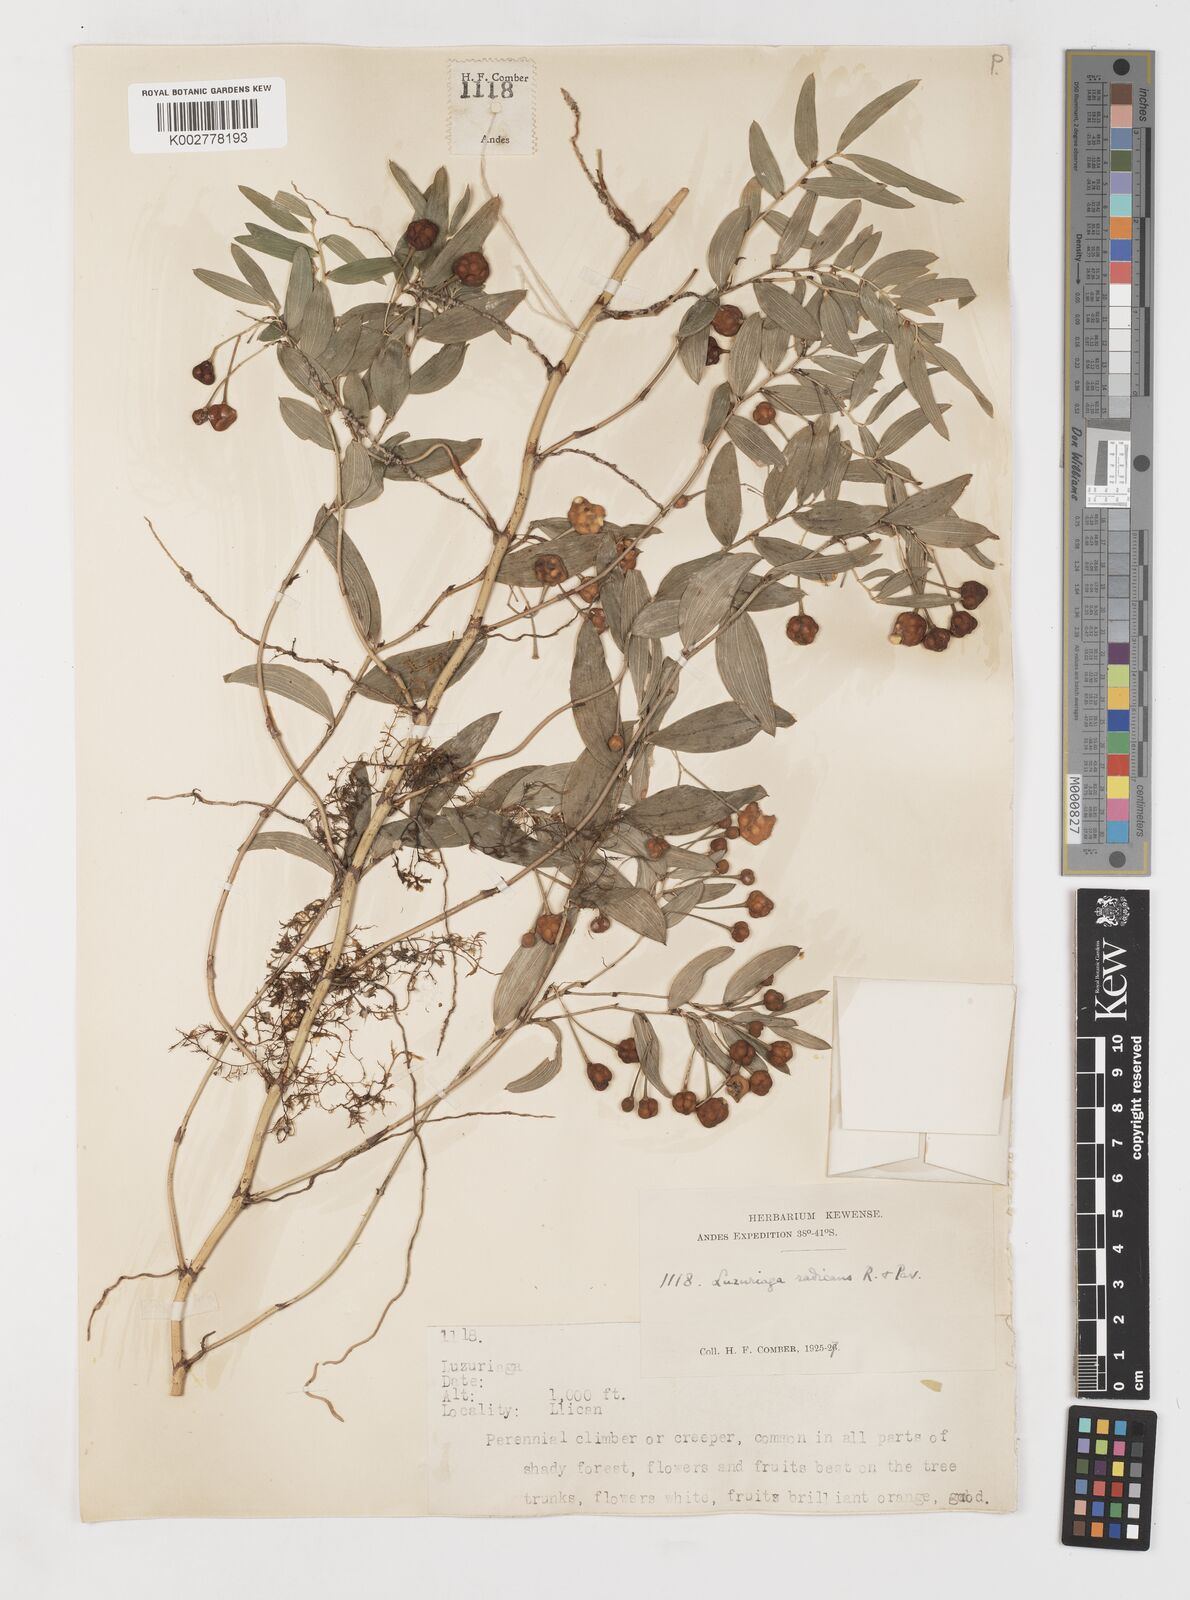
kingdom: Plantae
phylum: Tracheophyta
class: Liliopsida
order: Liliales
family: Alstroemeriaceae
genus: Luzuriaga
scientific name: Luzuriaga radicans
